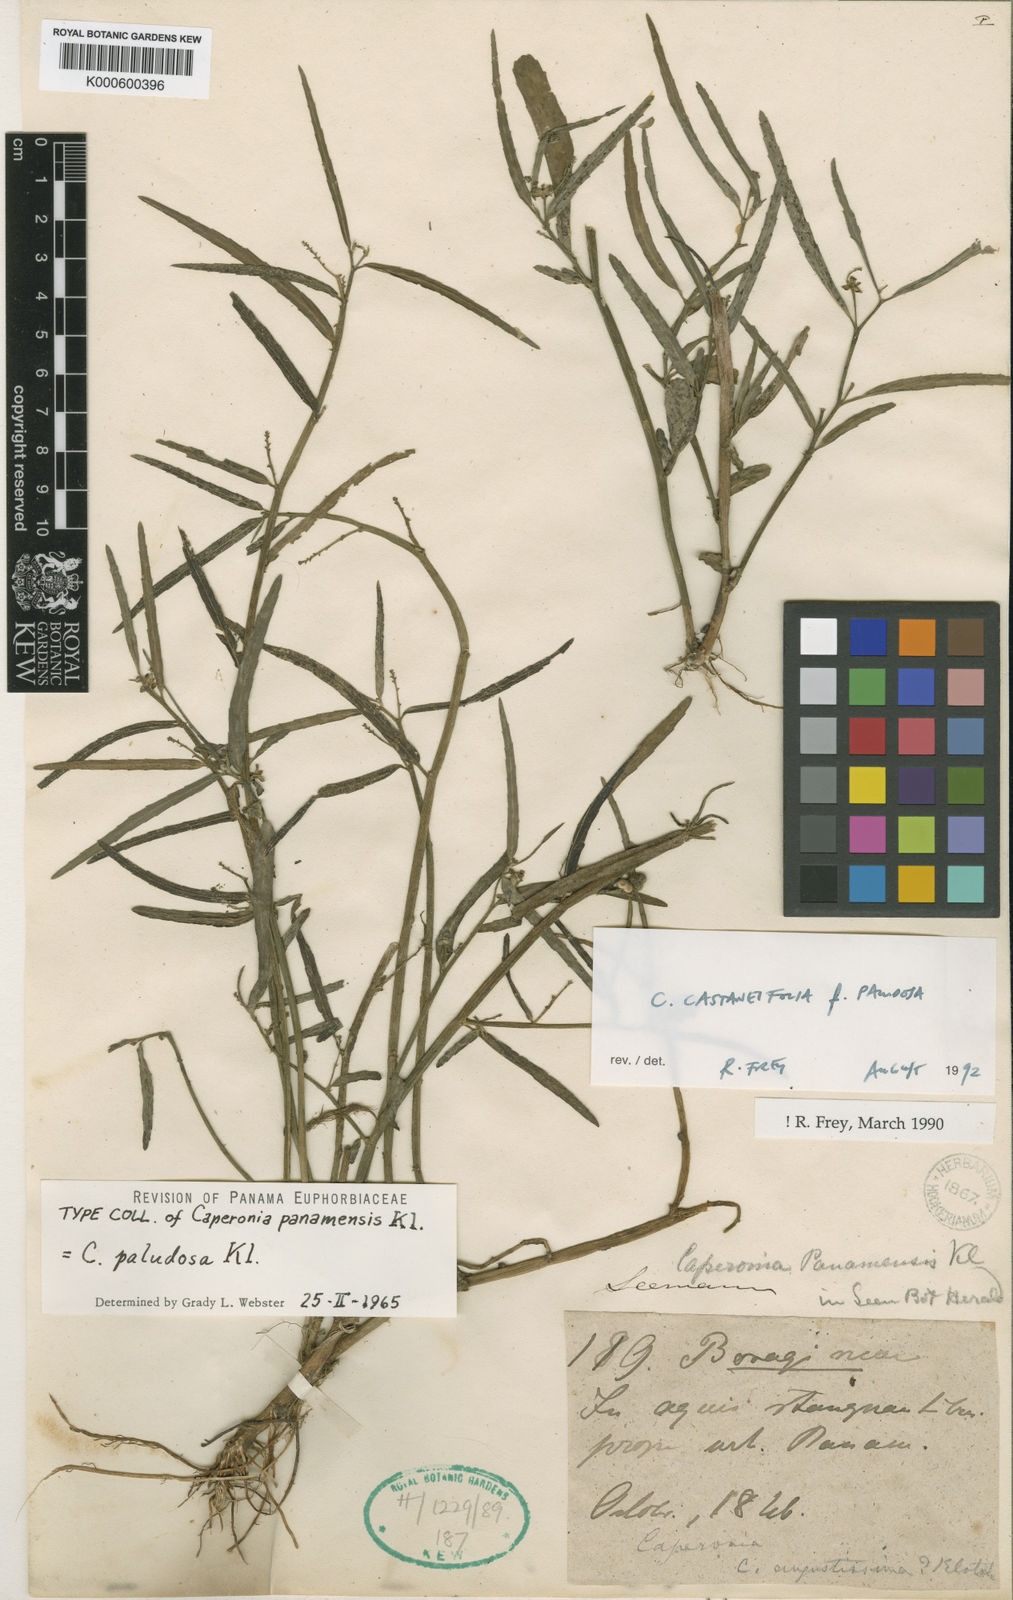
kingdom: Plantae
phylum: Tracheophyta
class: Magnoliopsida
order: Malpighiales
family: Euphorbiaceae
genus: Caperonia
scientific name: Caperonia castaneifolia
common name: Chestnutleaf false croton
